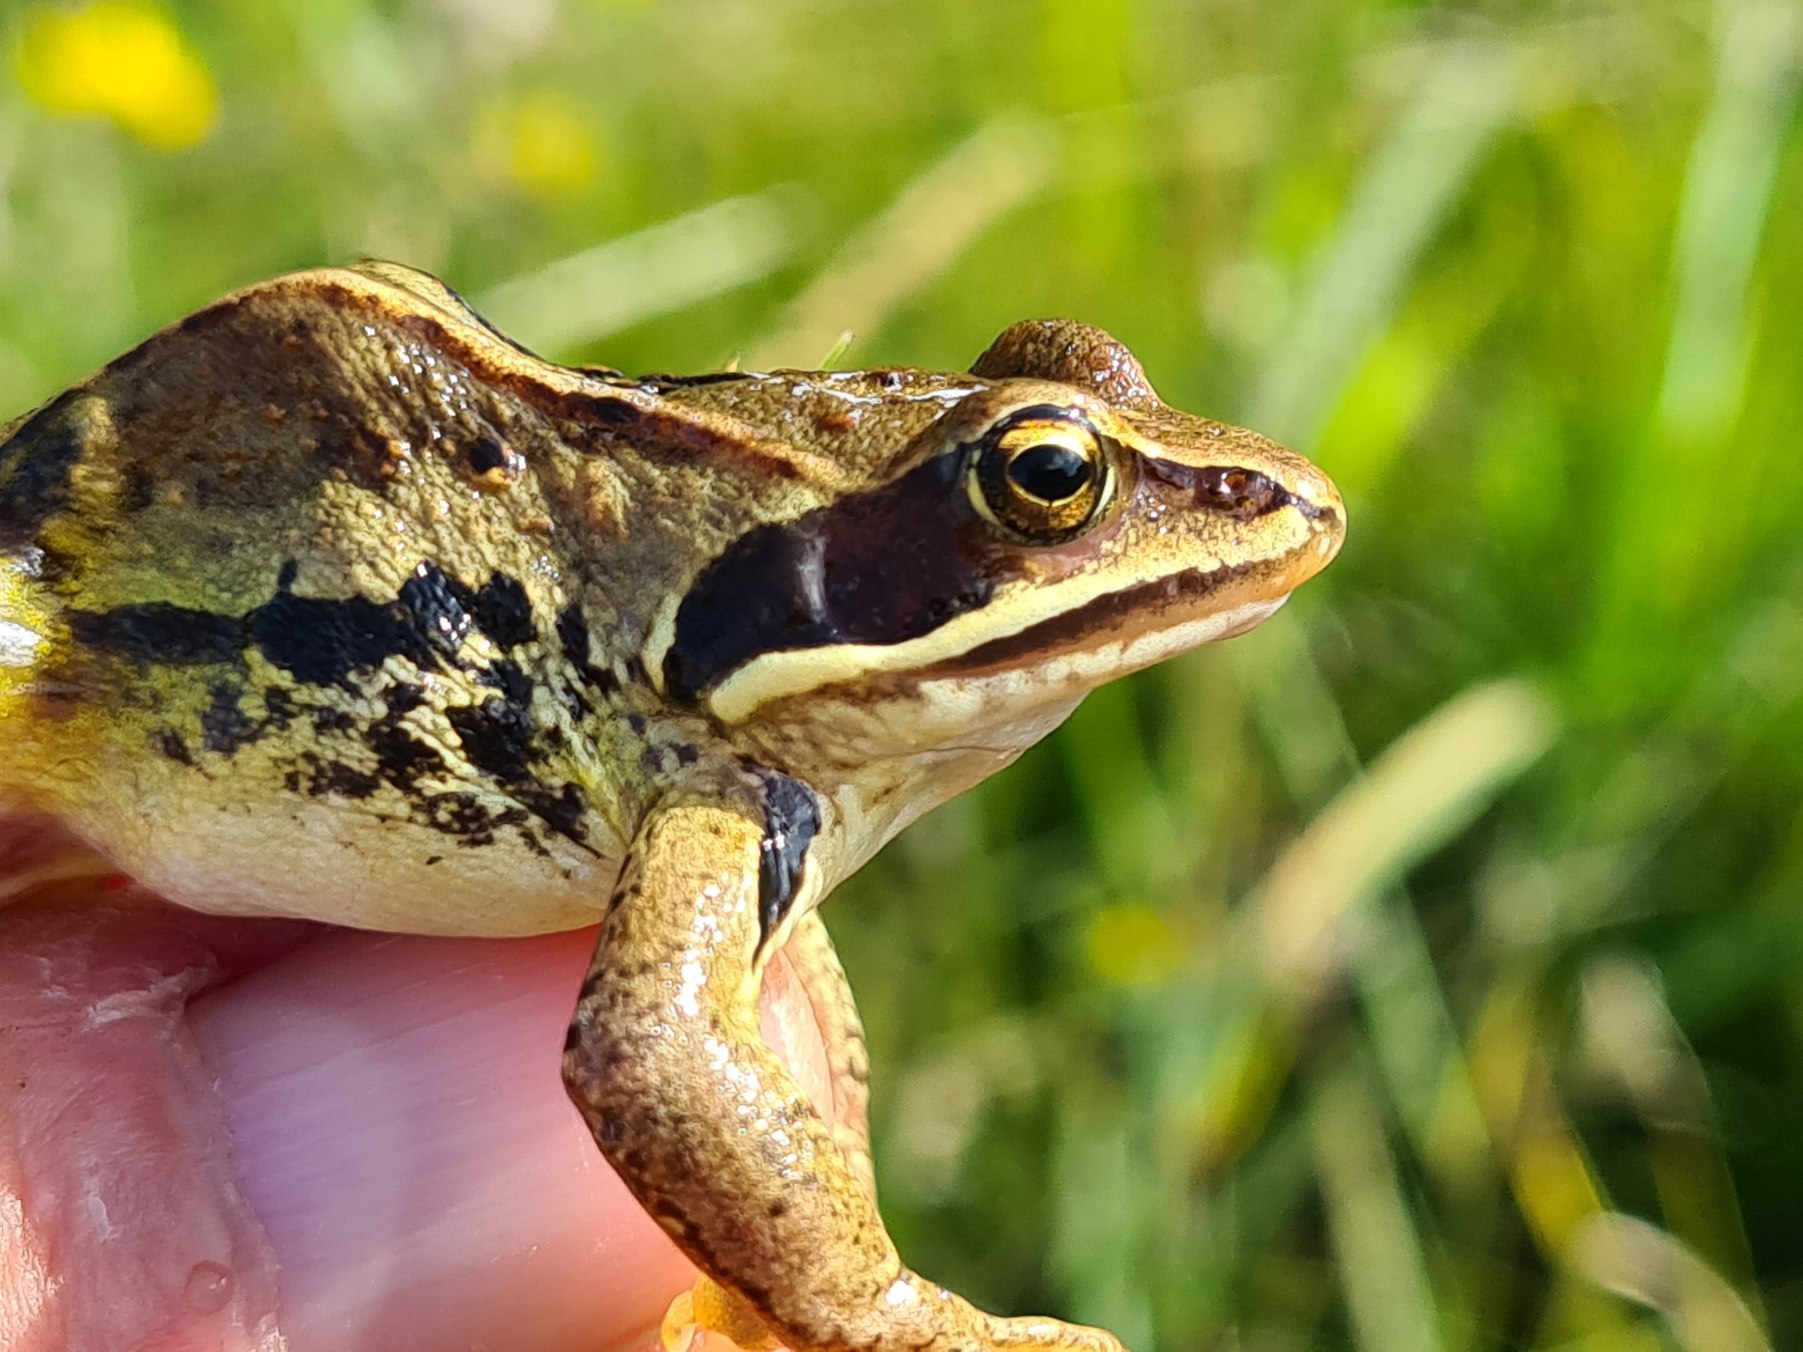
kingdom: Animalia
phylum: Chordata
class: Amphibia
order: Anura
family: Ranidae
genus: Rana
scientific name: Rana arvalis
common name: Spidssnudet frø
